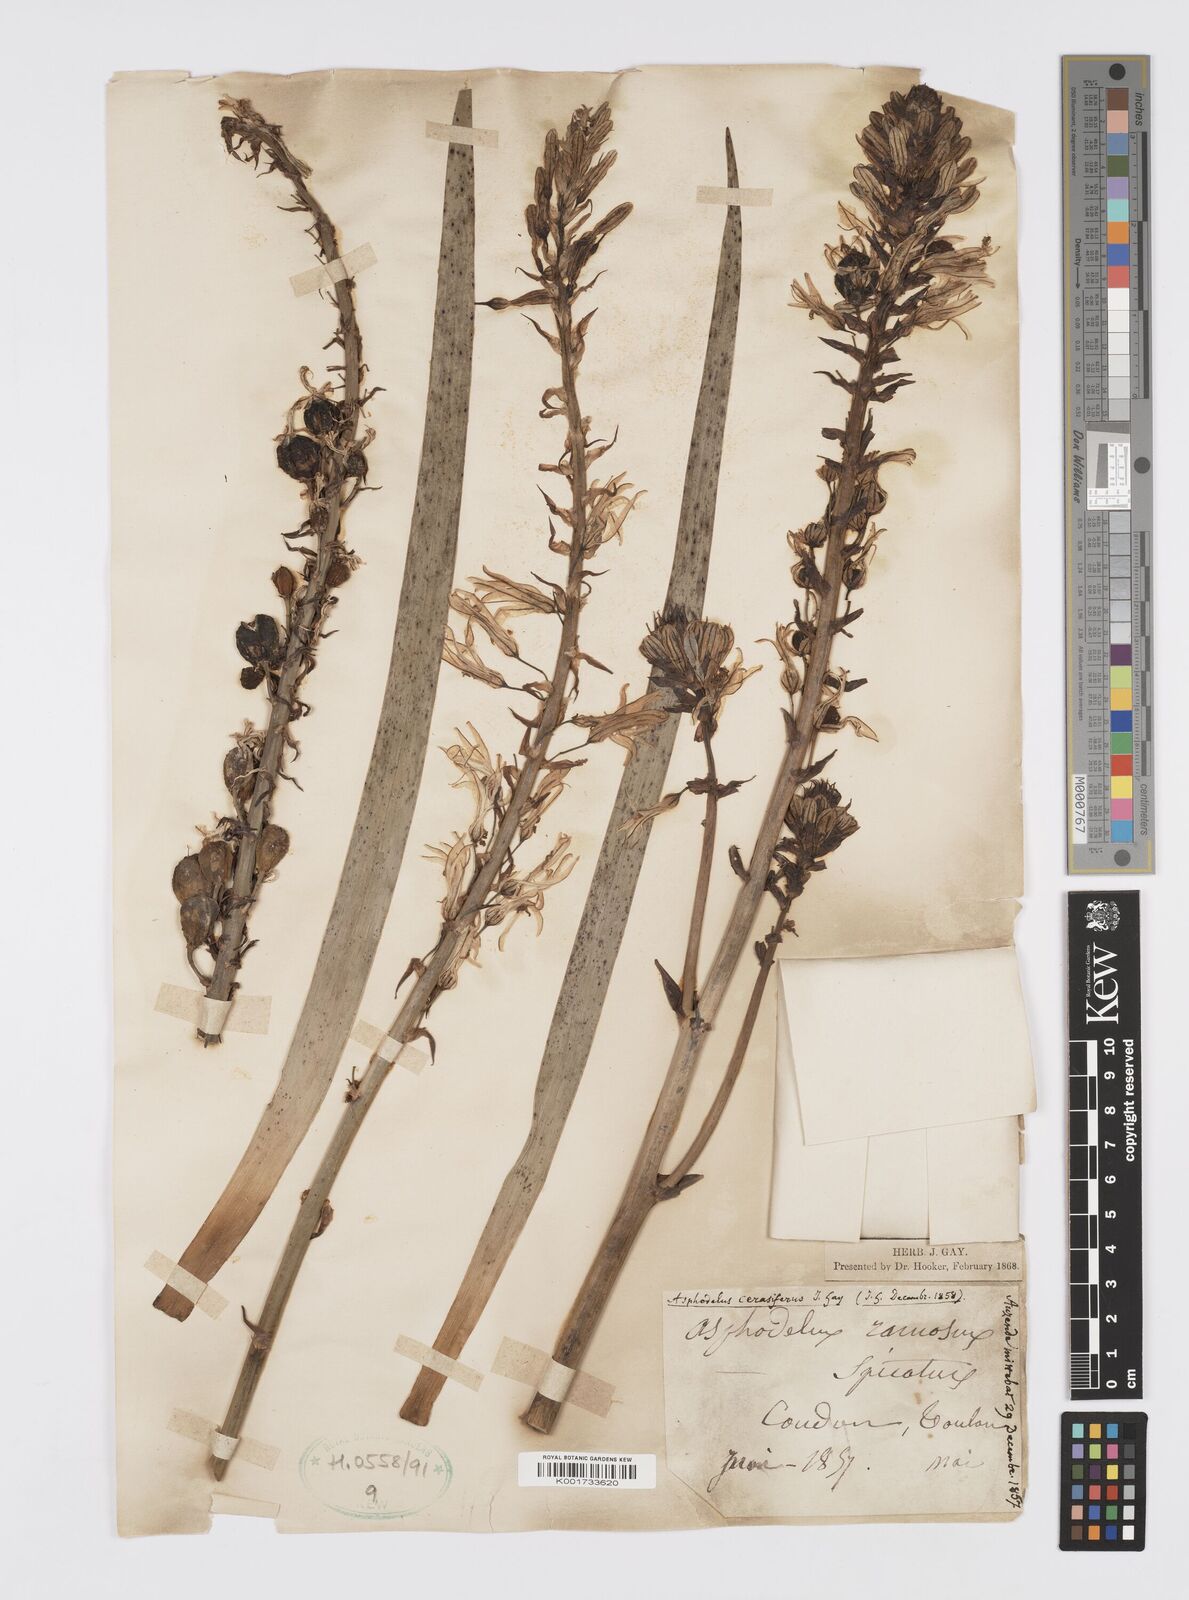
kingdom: Plantae
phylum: Tracheophyta
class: Liliopsida
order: Asparagales
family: Asphodelaceae
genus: Asphodelus
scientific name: Asphodelus cerasifer
